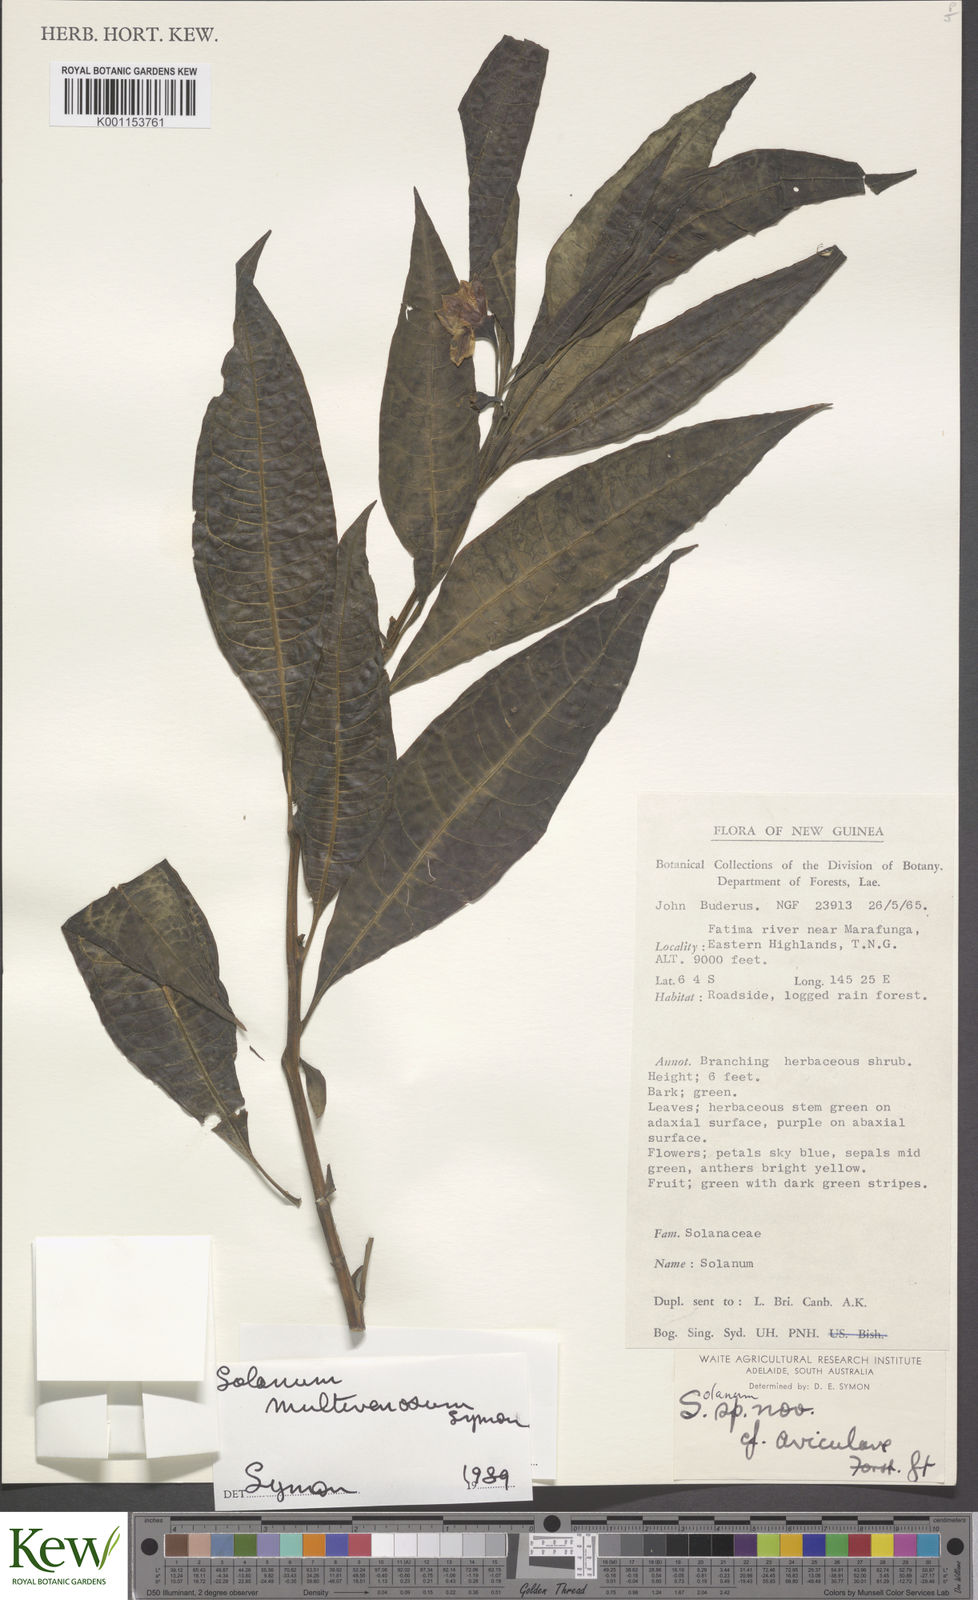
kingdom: Plantae
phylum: Tracheophyta
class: Magnoliopsida
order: Solanales
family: Solanaceae
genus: Solanum
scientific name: Solanum multivenosum
